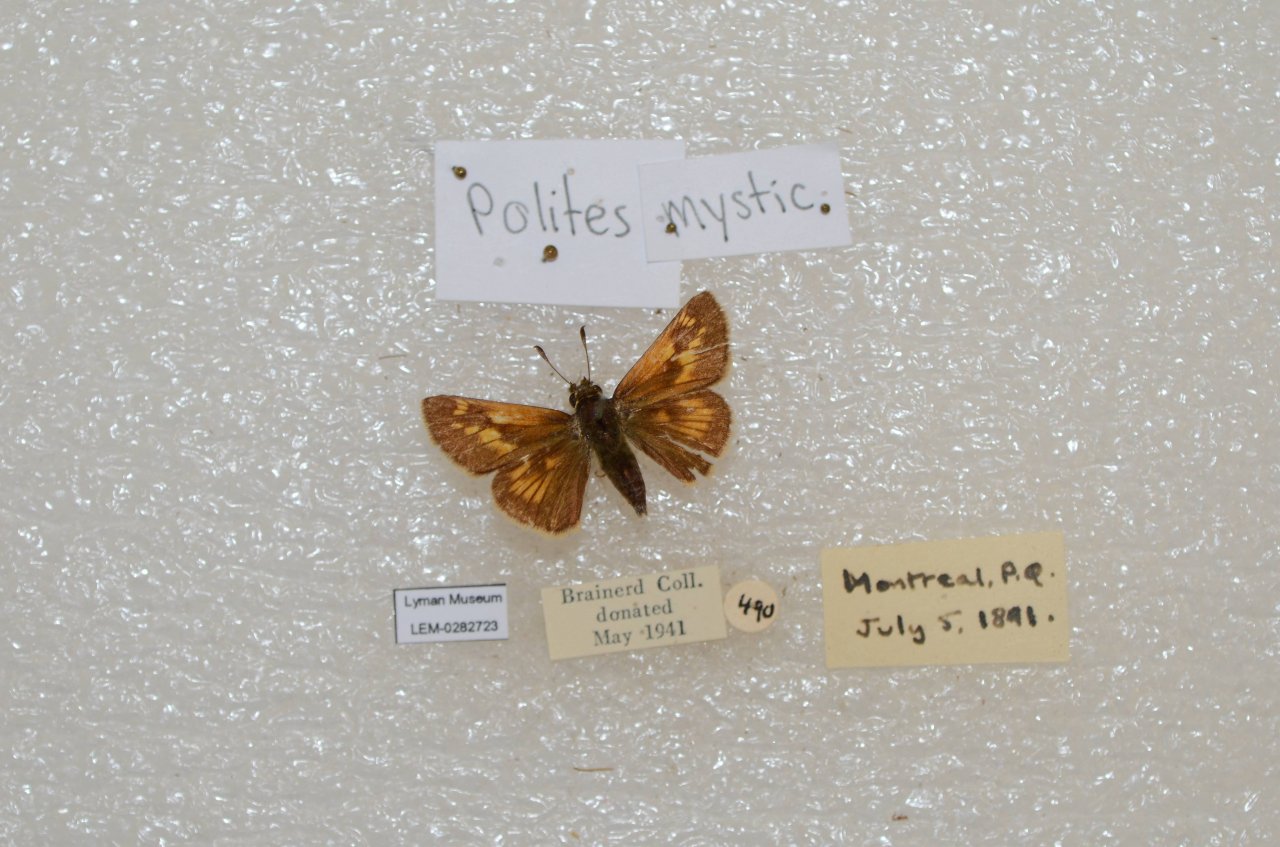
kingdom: Animalia
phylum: Arthropoda
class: Insecta
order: Lepidoptera
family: Hesperiidae
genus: Polites
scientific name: Polites
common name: Long Dash Skipper
